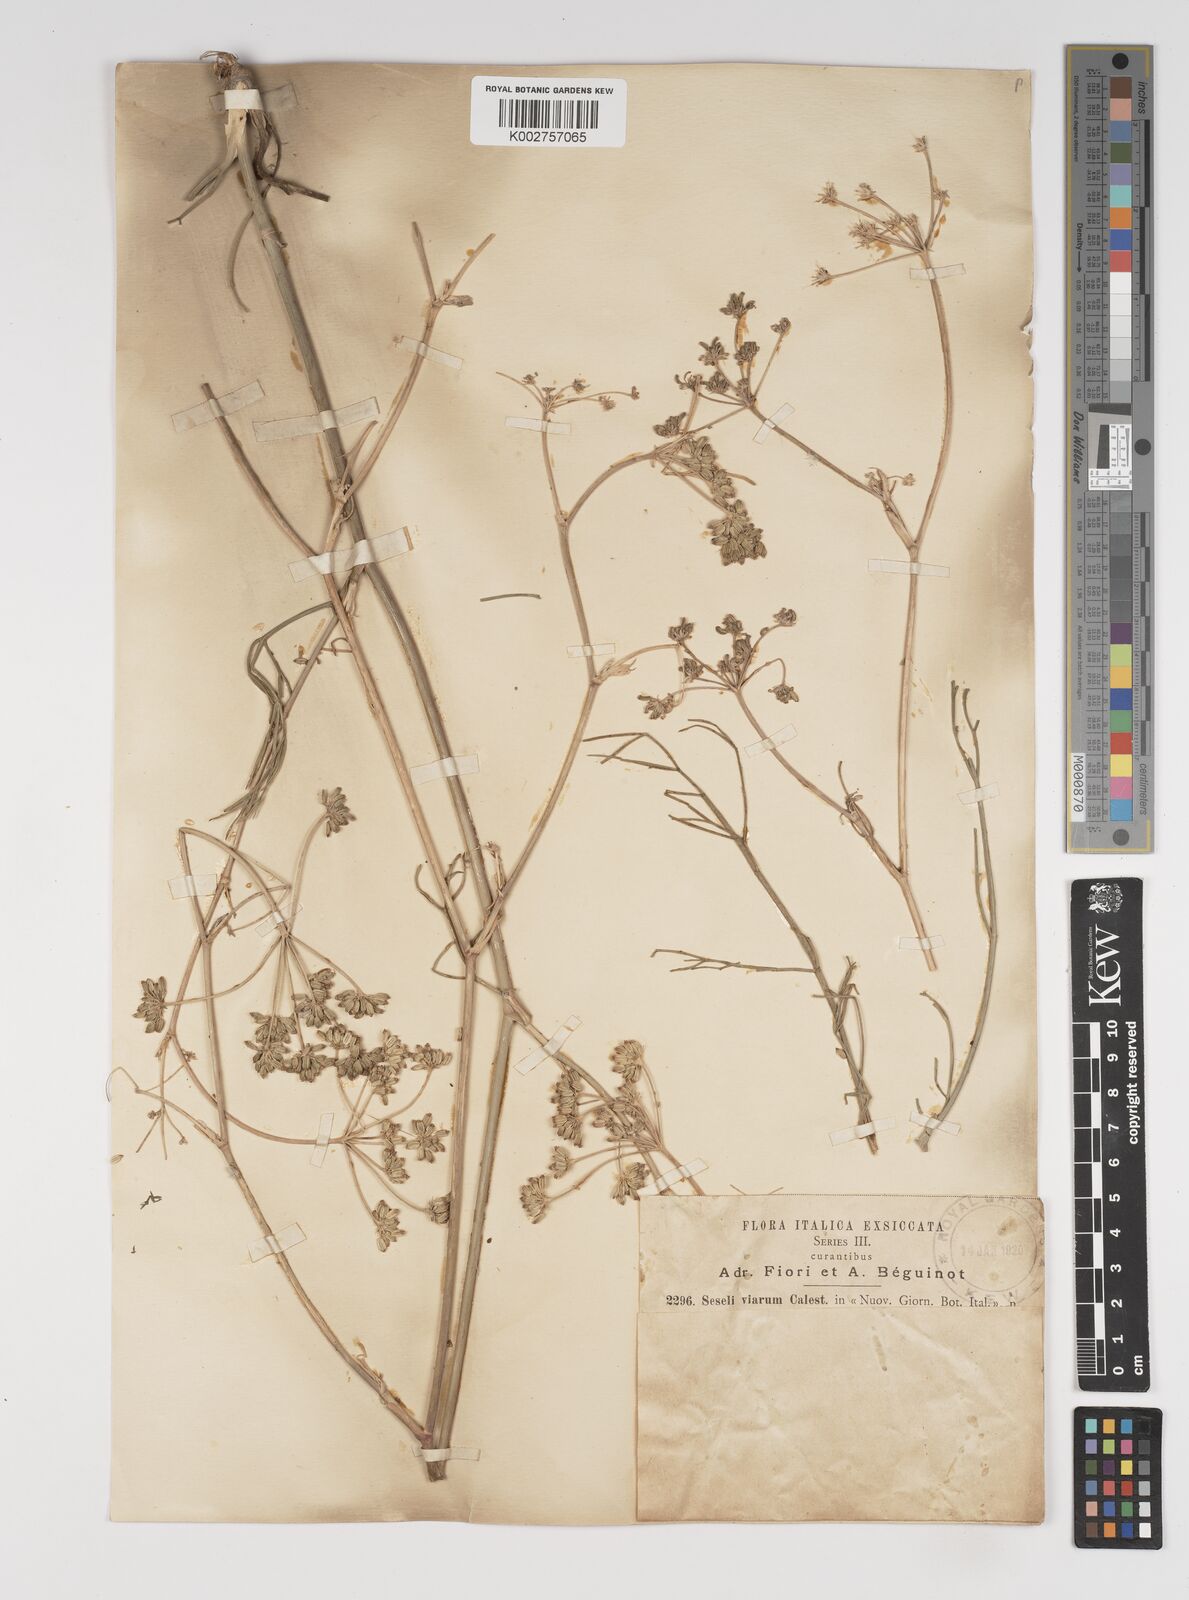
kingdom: Plantae
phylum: Tracheophyta
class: Magnoliopsida
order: Apiales
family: Apiaceae
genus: Seseli
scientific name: Seseli montanum
